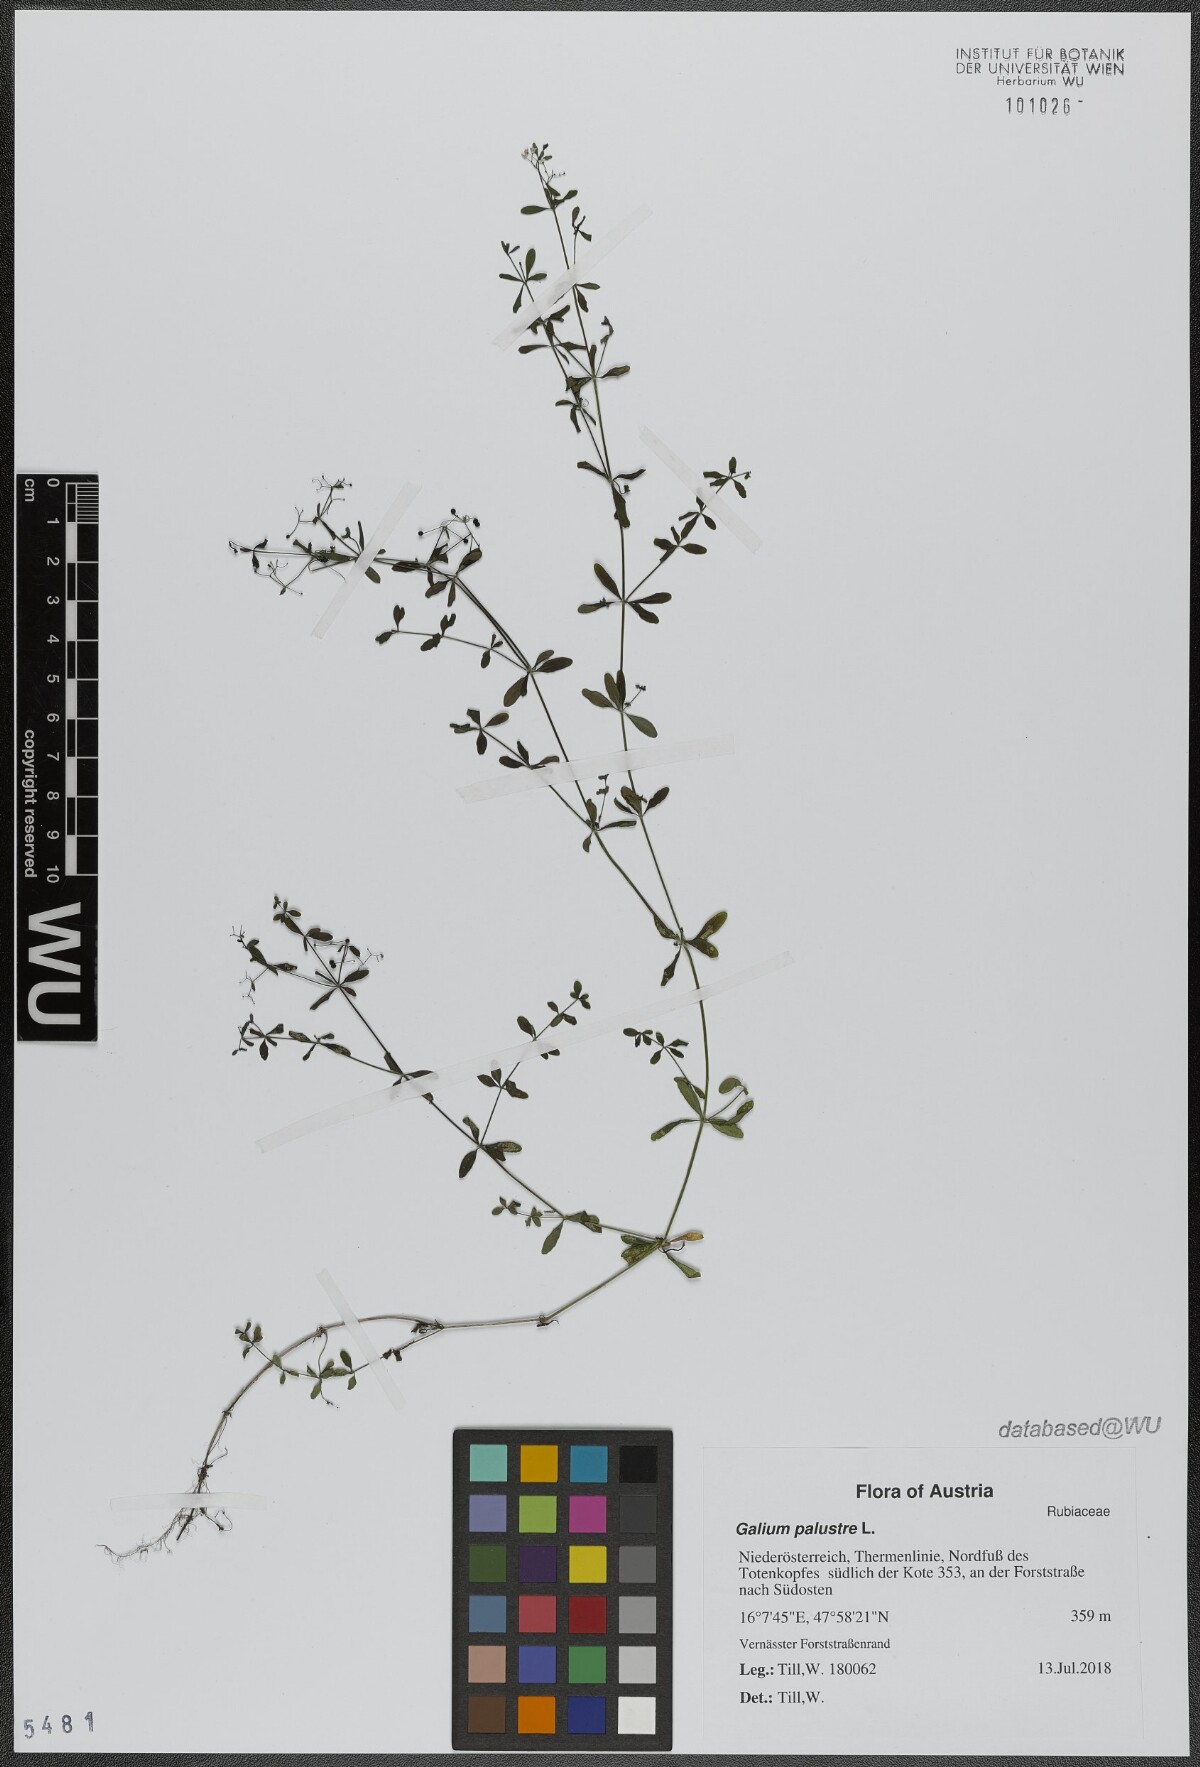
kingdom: Plantae
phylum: Tracheophyta
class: Magnoliopsida
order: Gentianales
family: Rubiaceae
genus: Galium
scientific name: Galium palustre
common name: Common marsh-bedstraw
